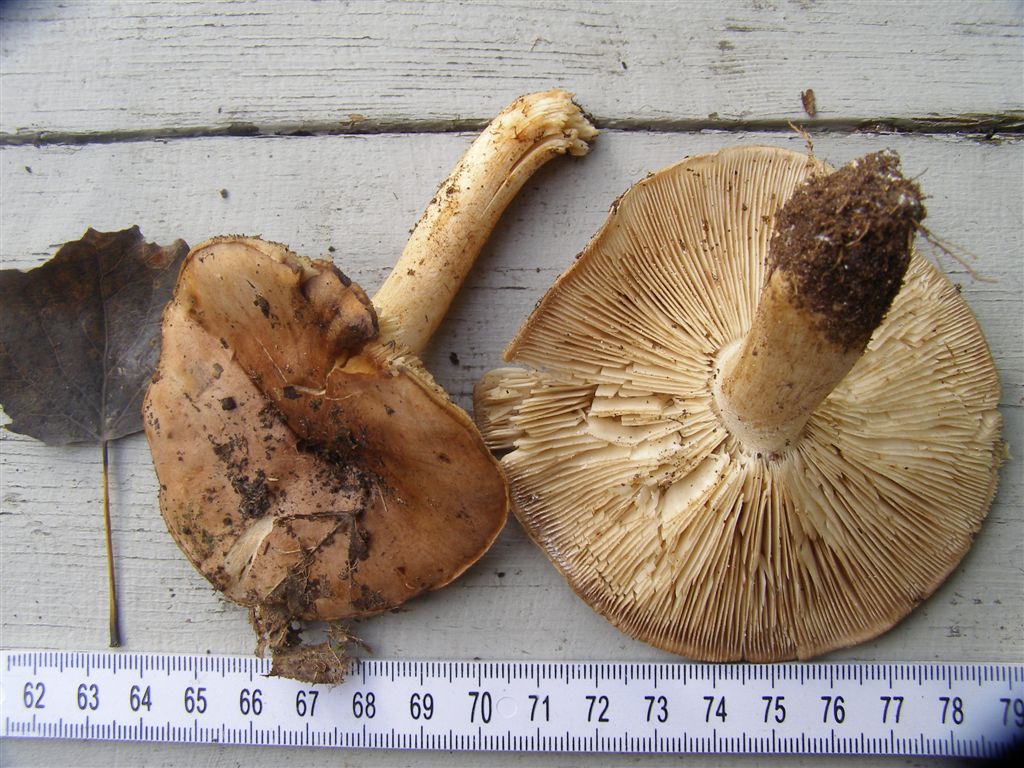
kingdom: Fungi
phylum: Basidiomycota
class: Agaricomycetes
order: Agaricales
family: Tricholomataceae
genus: Tricholoma
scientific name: Tricholoma populinum
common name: poppel-ridderhat
